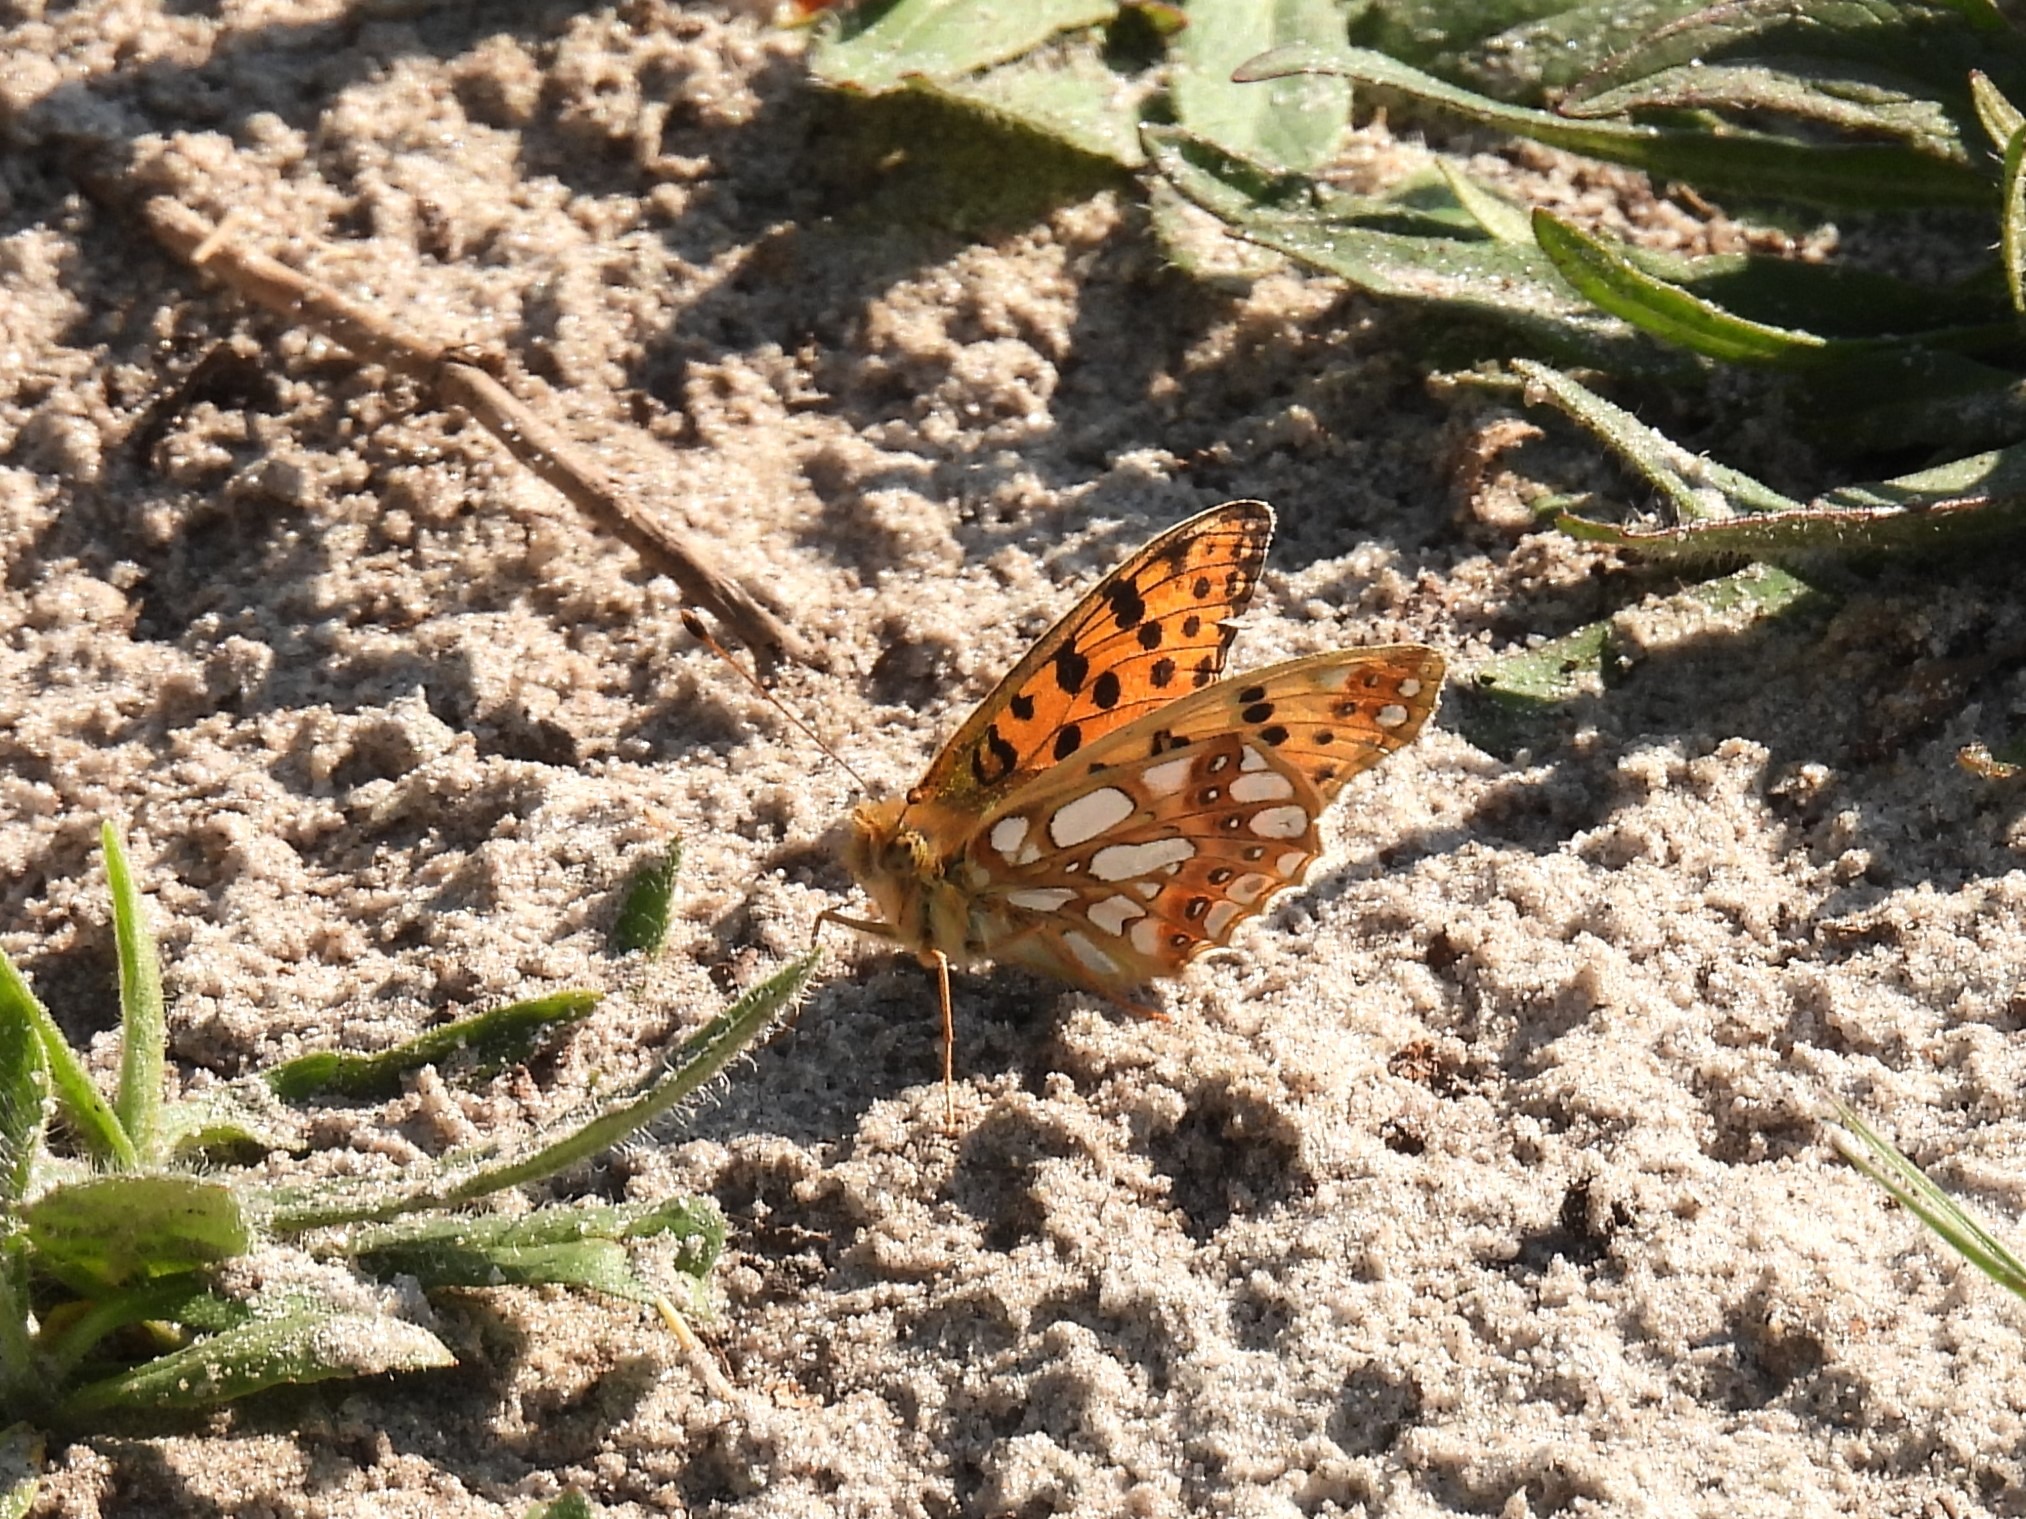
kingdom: Animalia
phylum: Arthropoda
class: Insecta
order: Lepidoptera
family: Nymphalidae
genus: Issoria
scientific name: Issoria lathonia
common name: Storplettet perlemorsommerfugl
